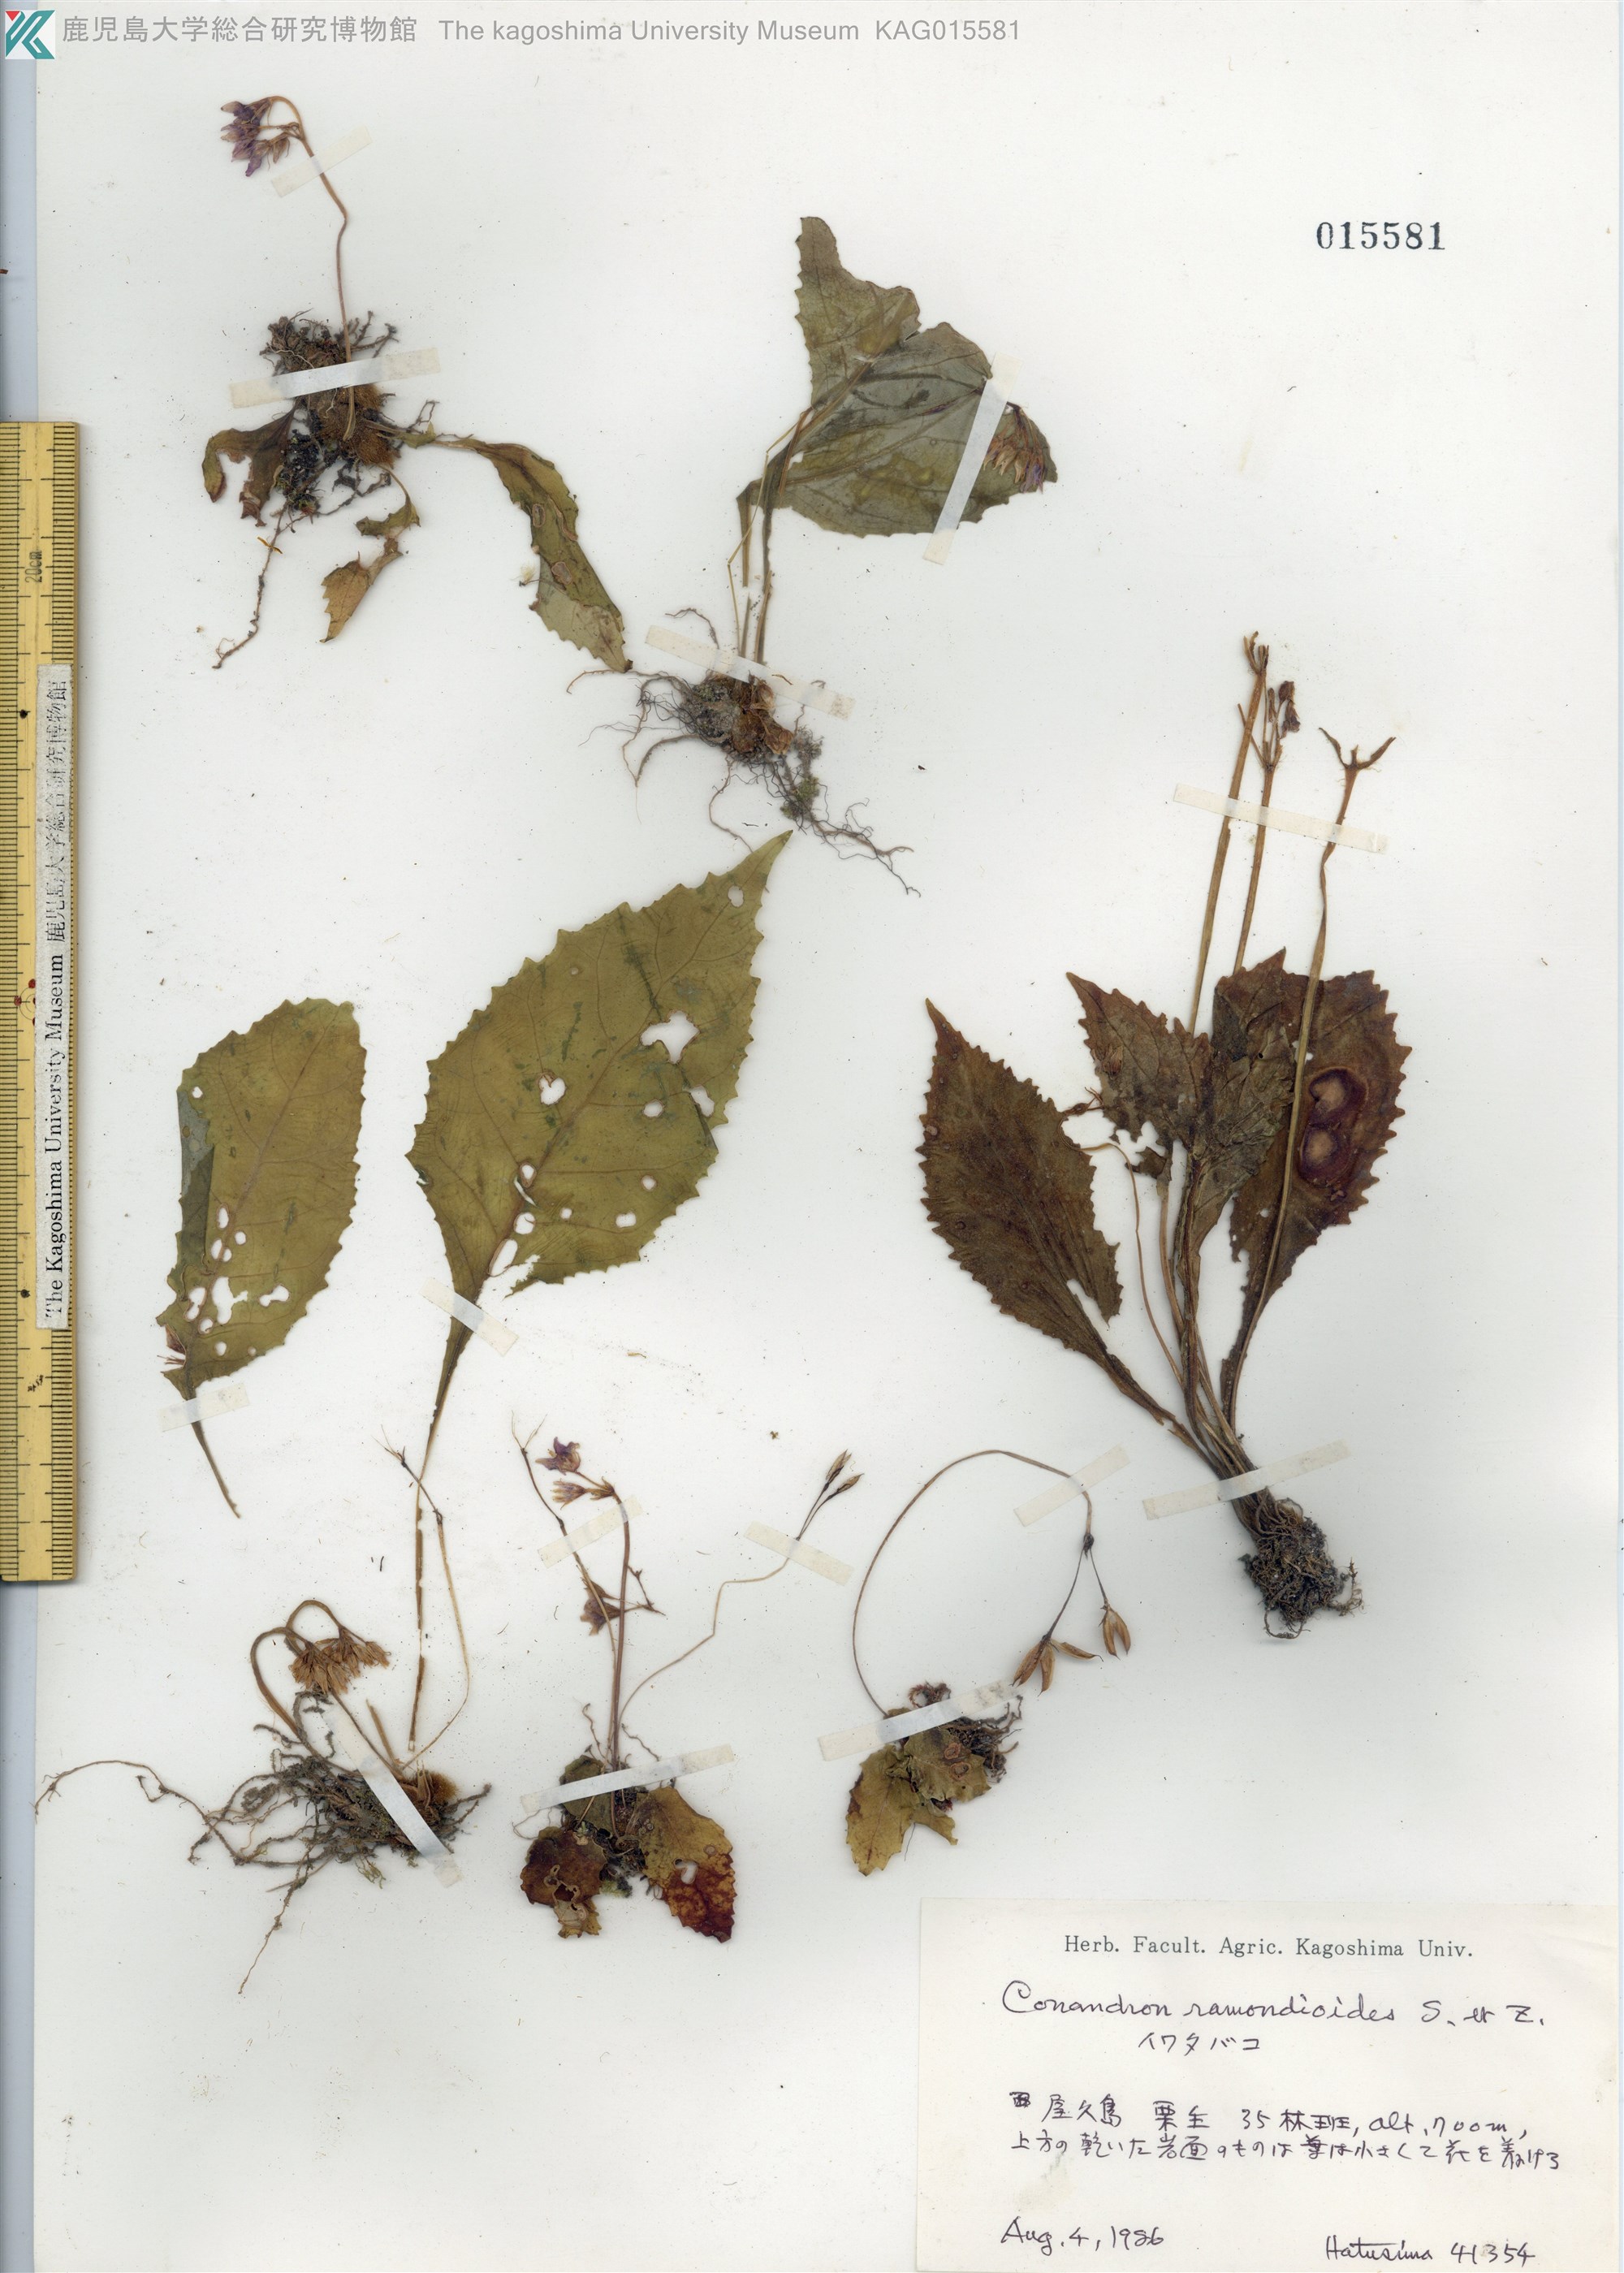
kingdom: Plantae
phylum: Tracheophyta
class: Magnoliopsida
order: Lamiales
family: Gesneriaceae
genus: Conandron
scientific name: Conandron ramondioides
